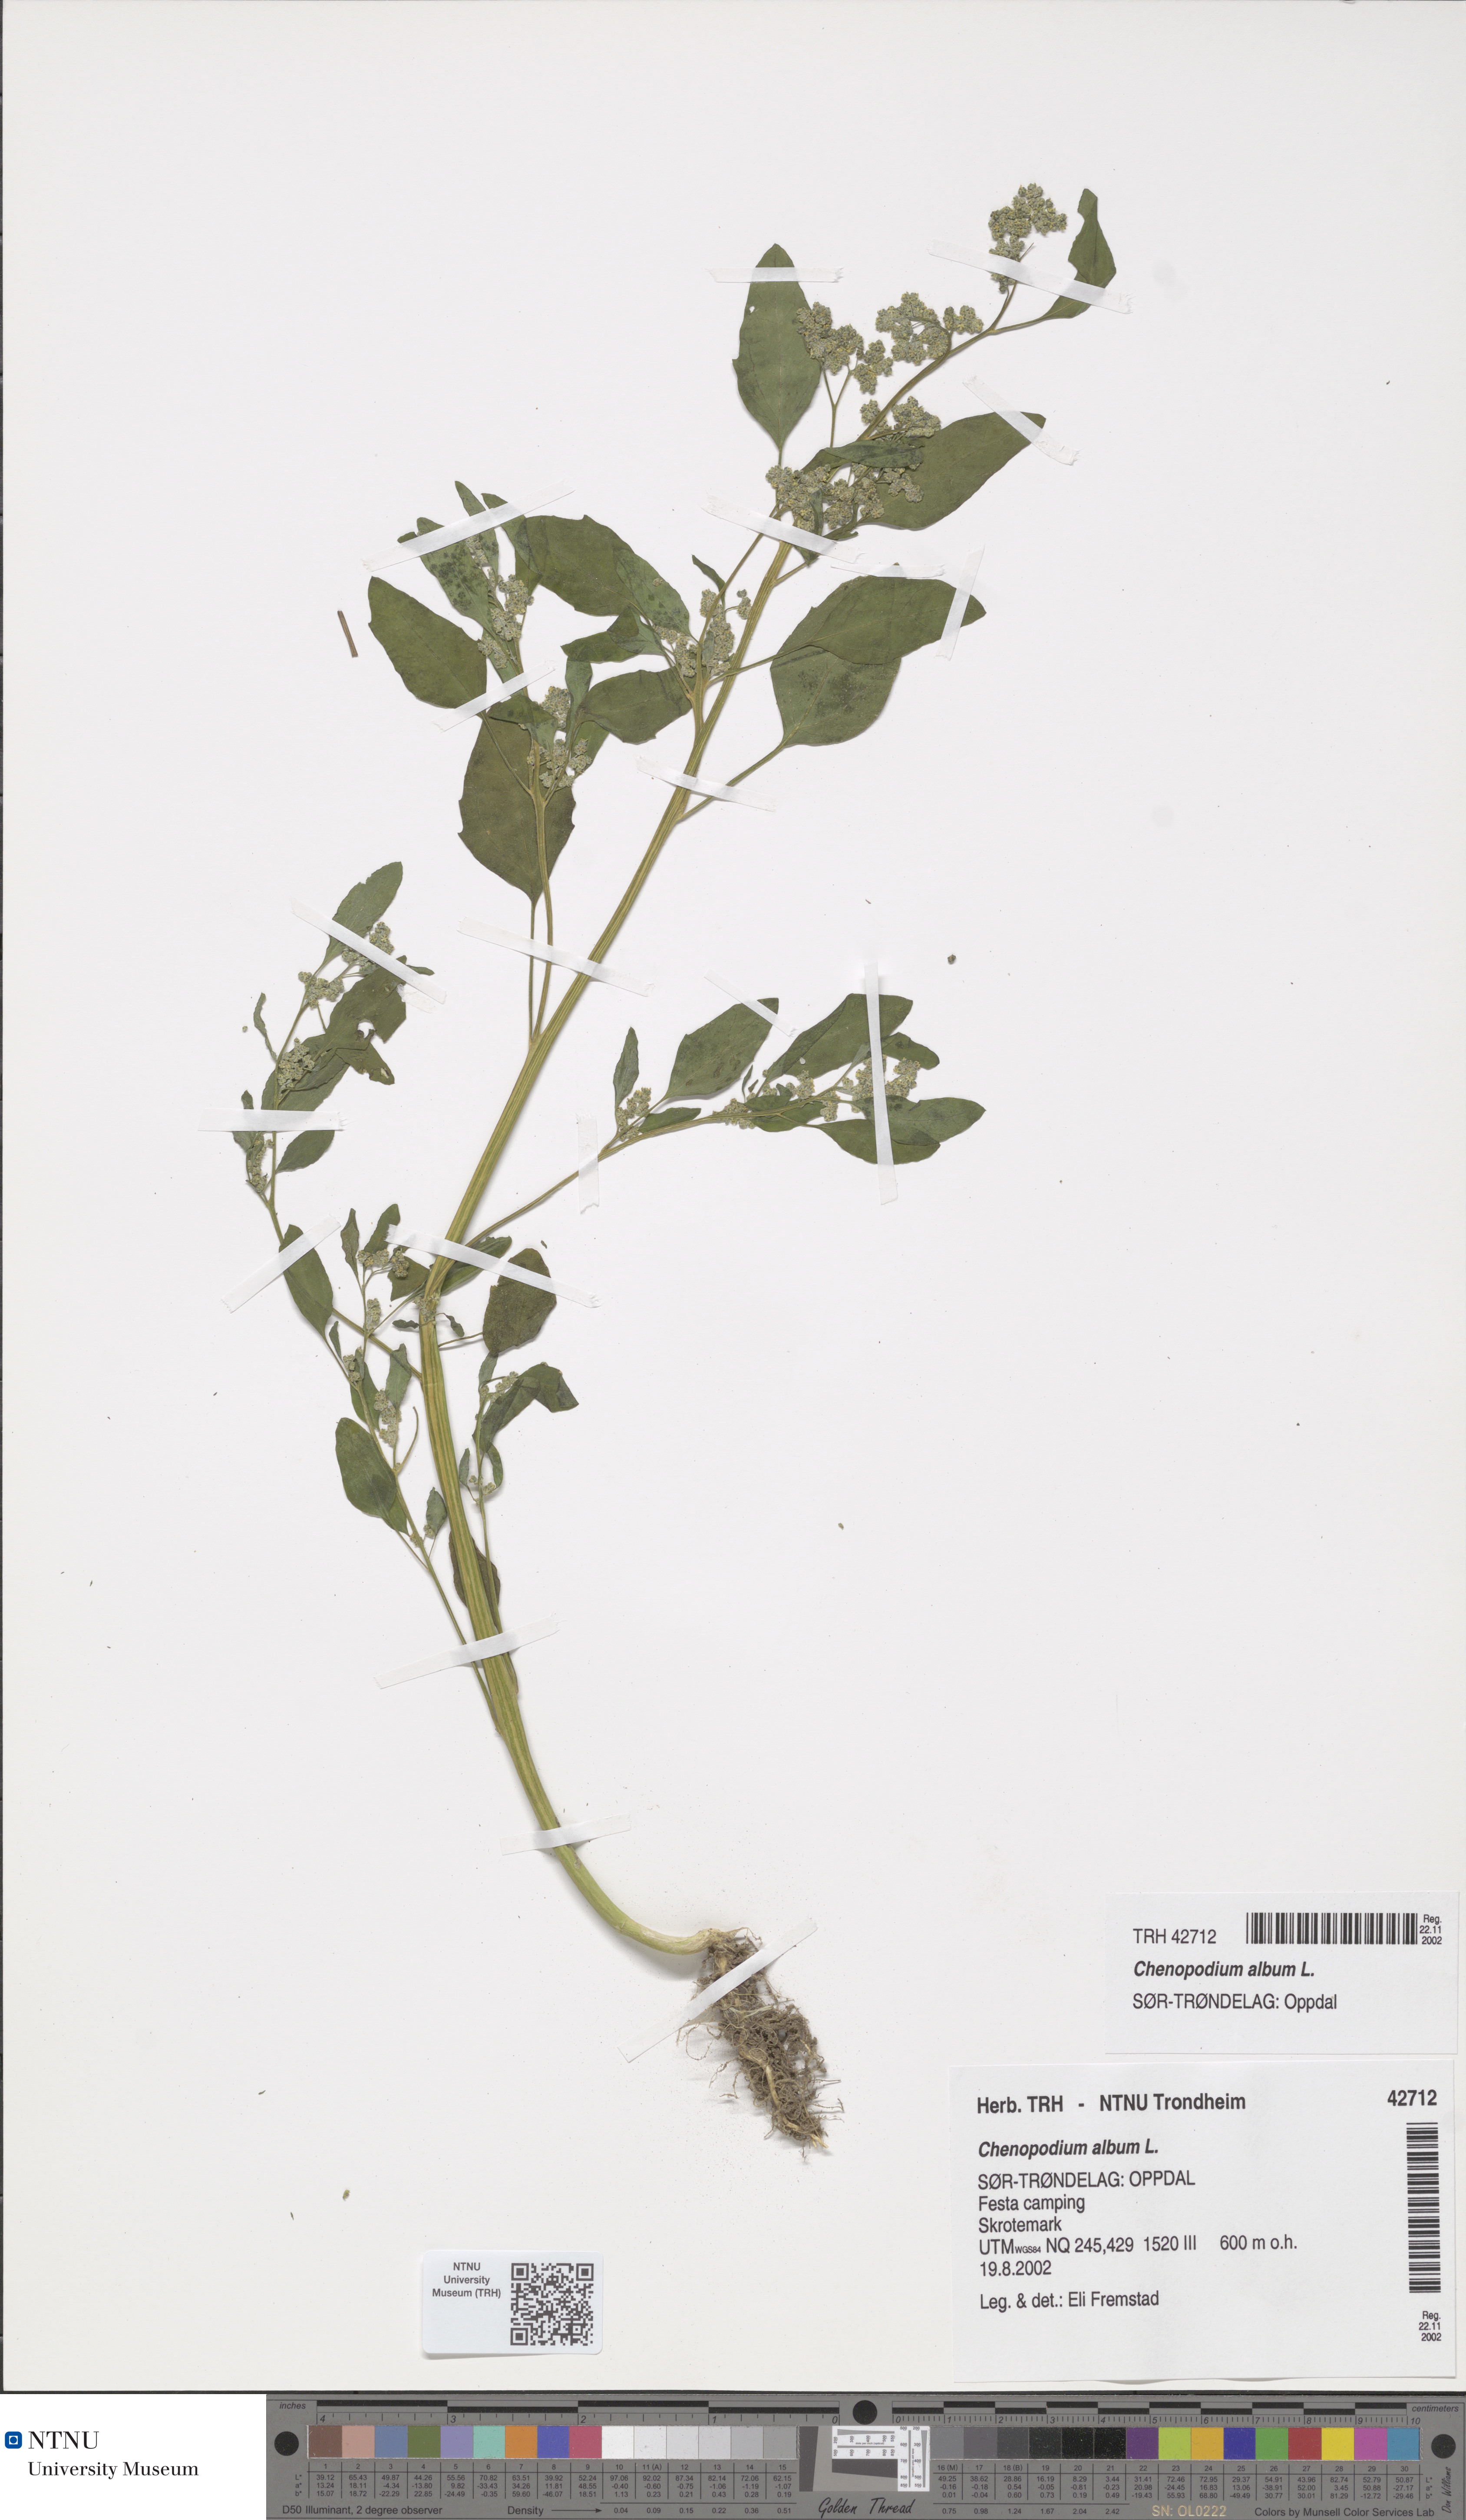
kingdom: Plantae
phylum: Tracheophyta
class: Magnoliopsida
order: Caryophyllales
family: Amaranthaceae
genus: Chenopodium
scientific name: Chenopodium album
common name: Fat-hen
